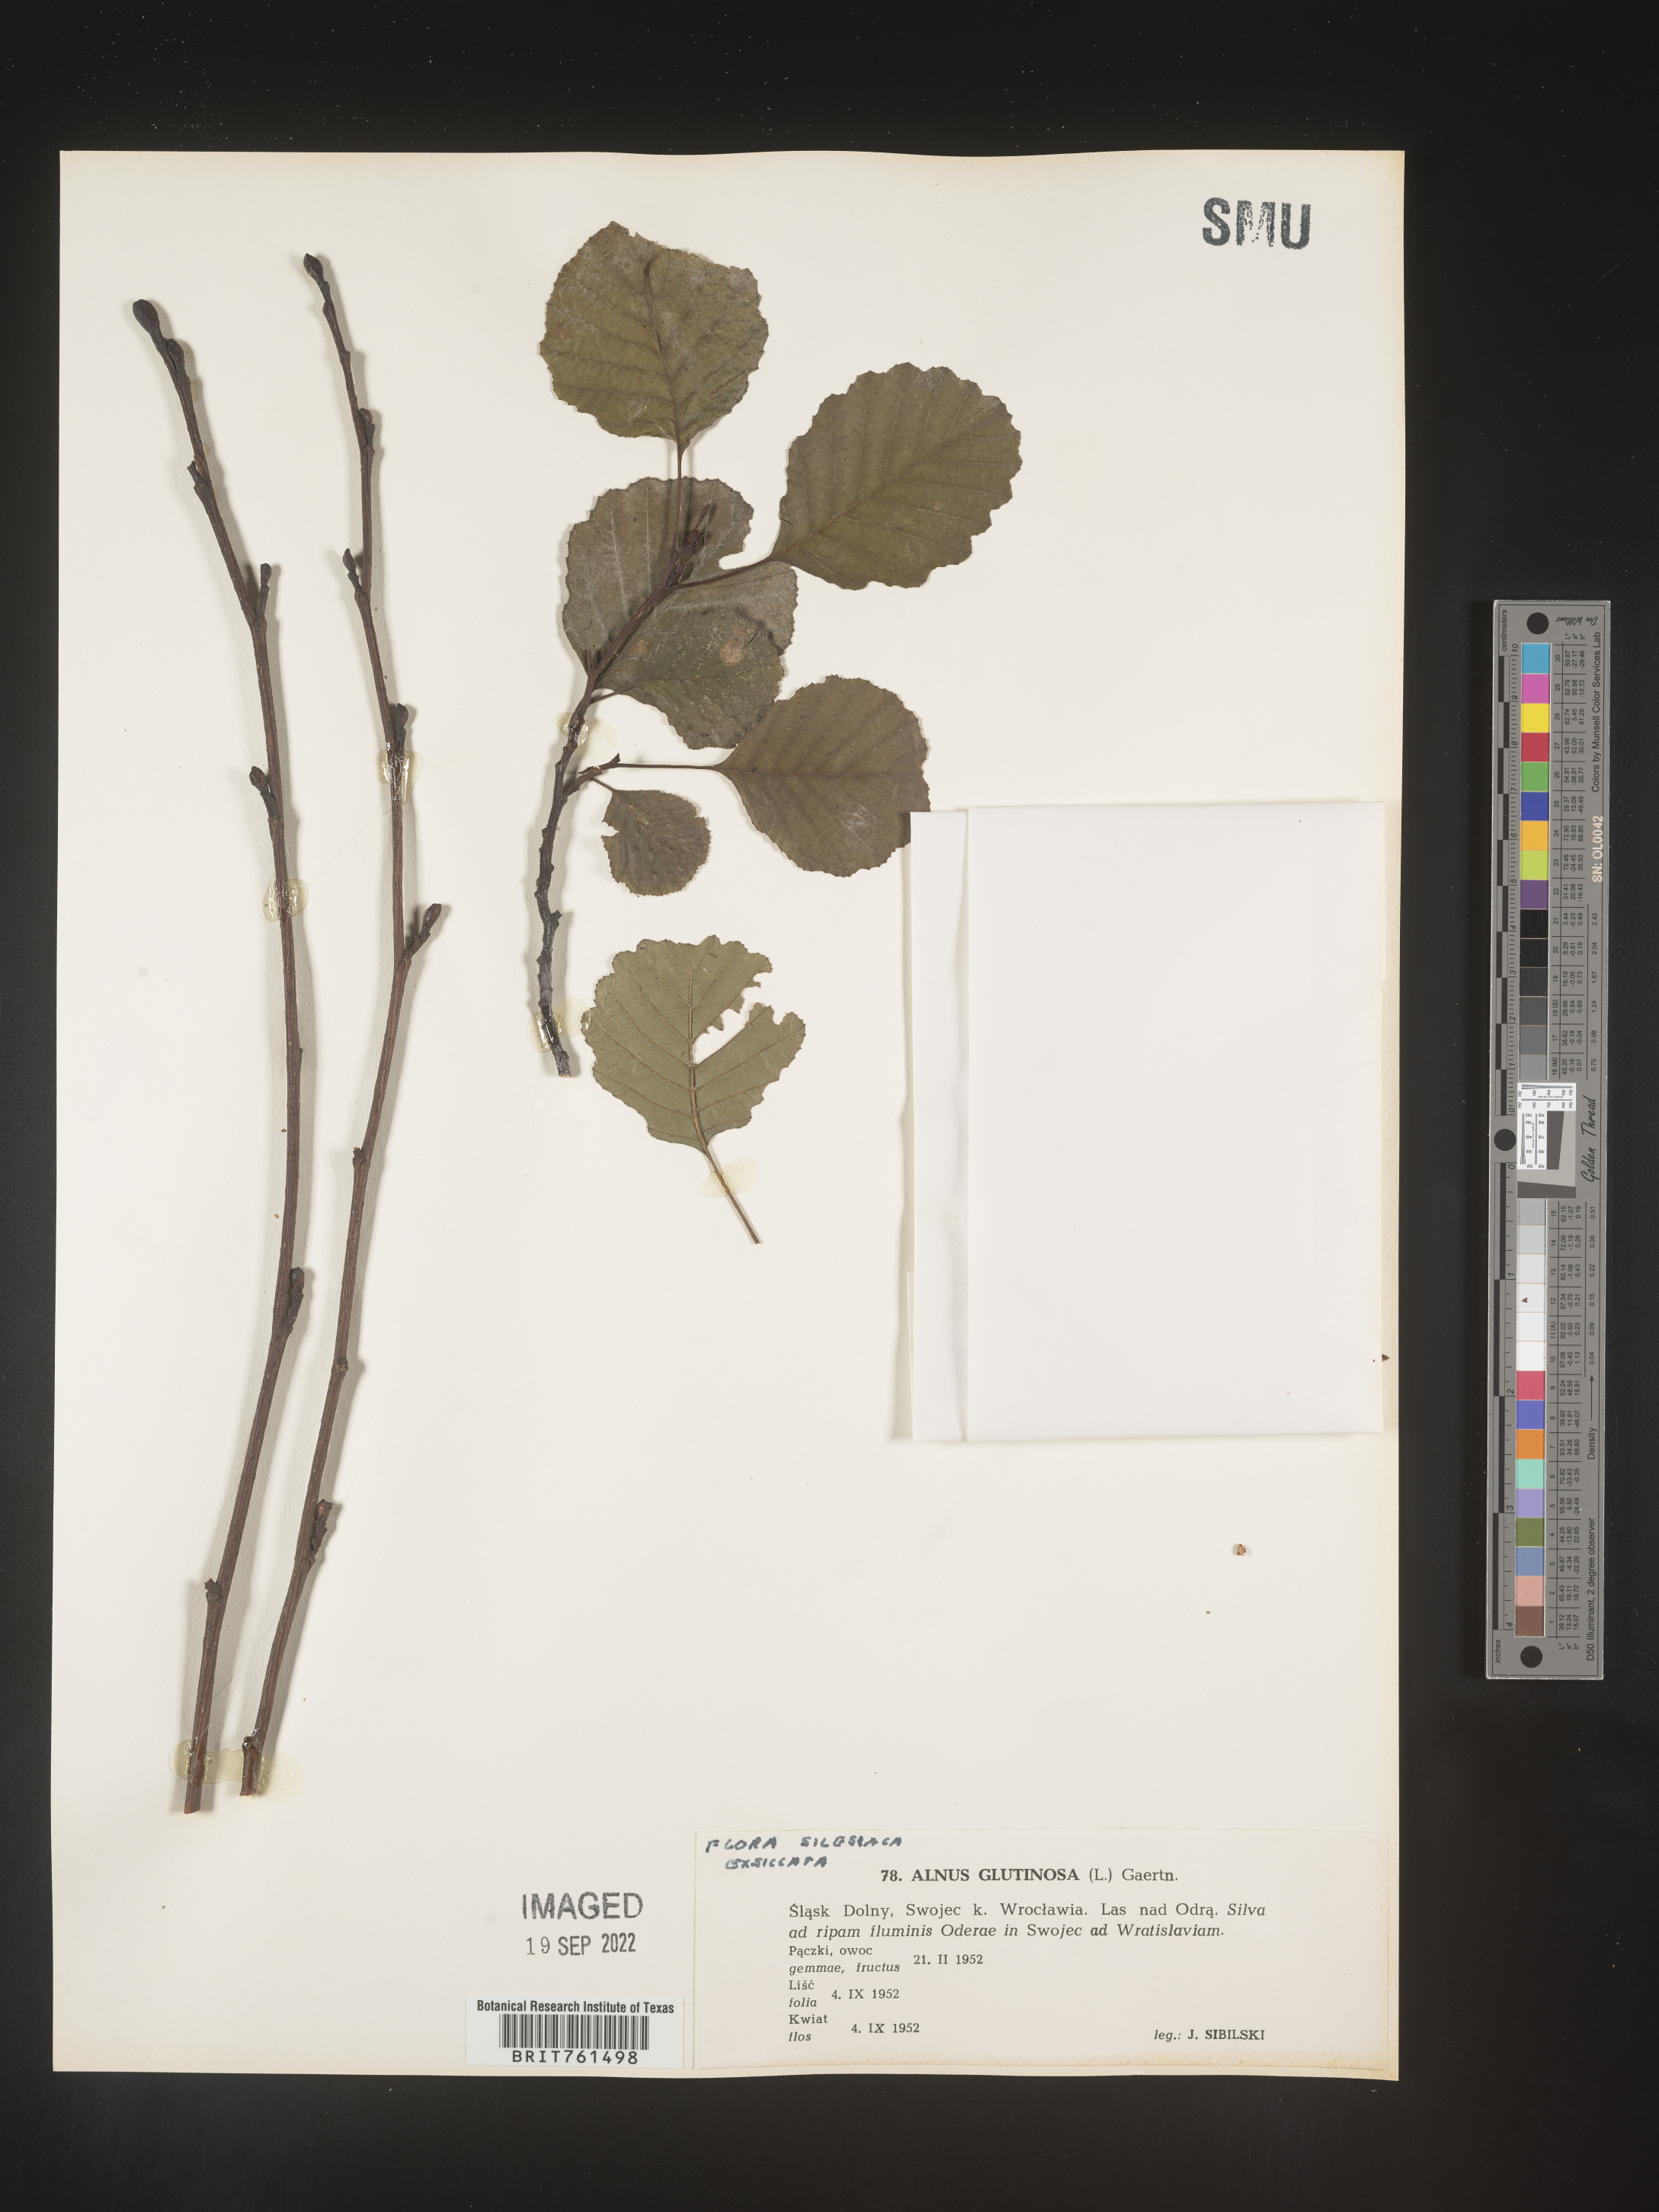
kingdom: Plantae
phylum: Tracheophyta
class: Magnoliopsida
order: Fagales
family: Betulaceae
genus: Alnus
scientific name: Alnus
